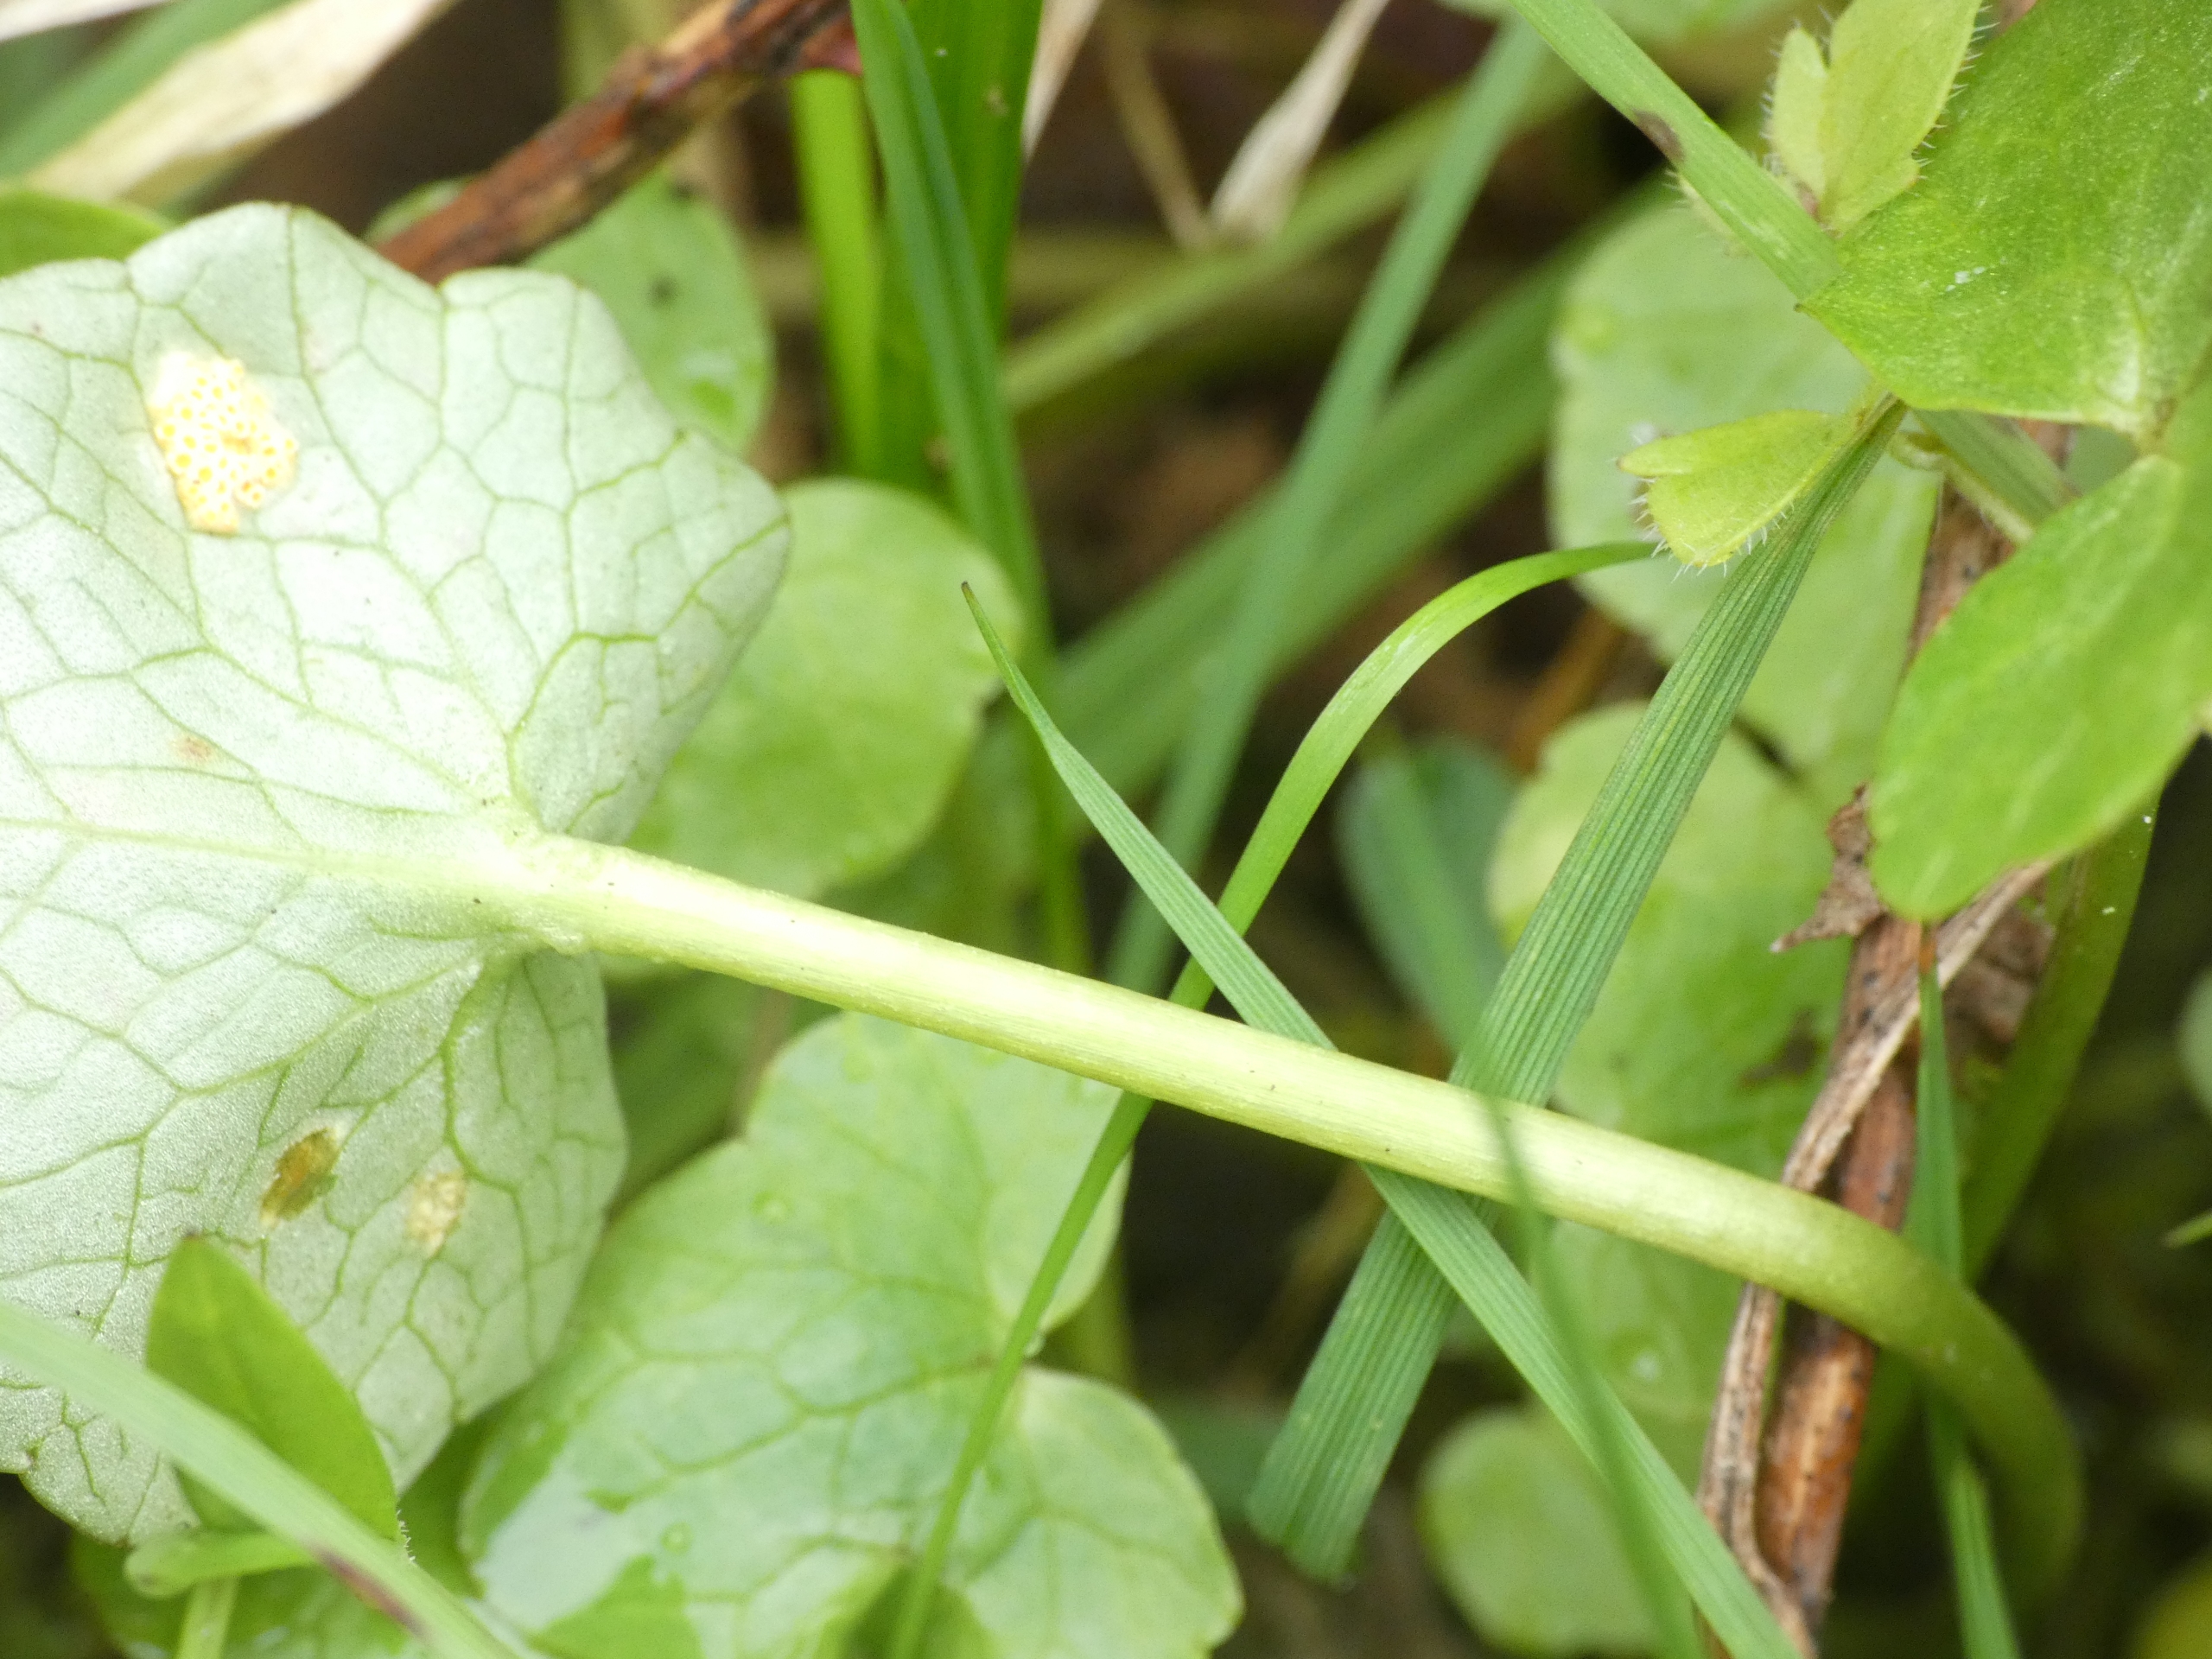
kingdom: Plantae
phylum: Tracheophyta
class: Magnoliopsida
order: Ranunculales
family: Ranunculaceae
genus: Ficaria
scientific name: Ficaria verna
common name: Vorterod
